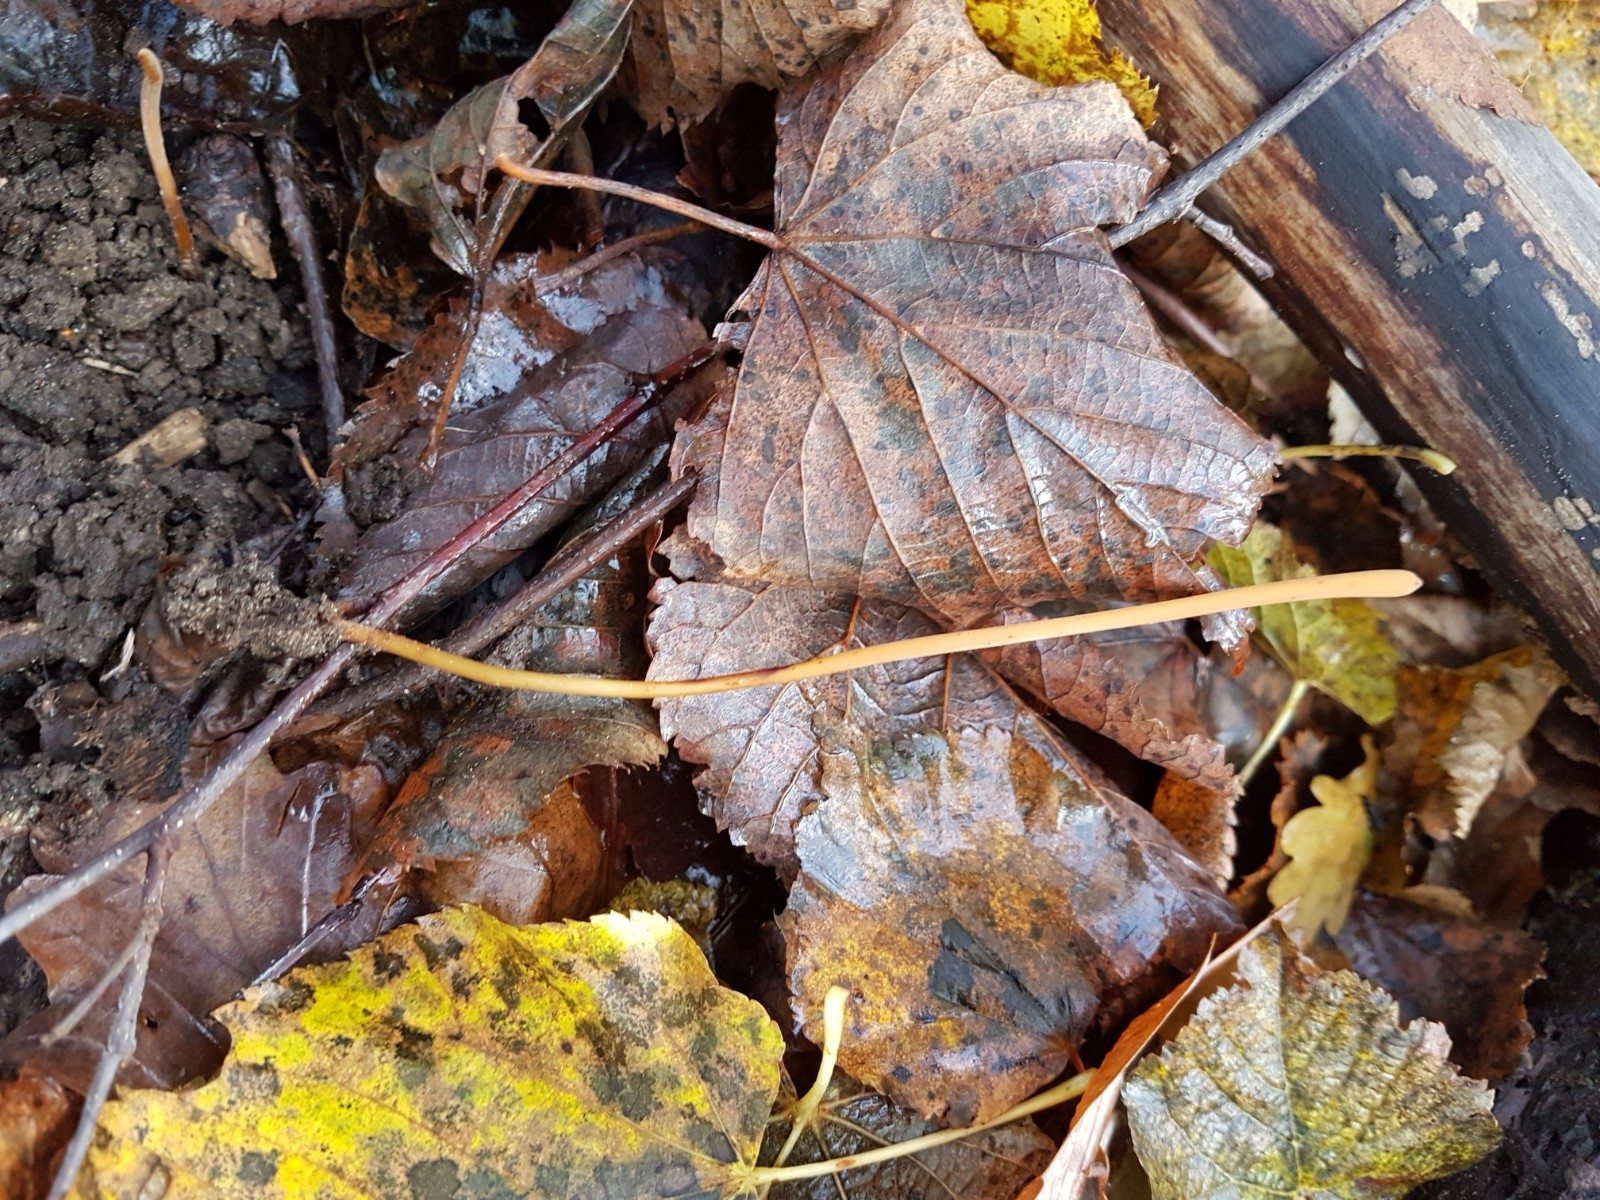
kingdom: Fungi
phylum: Basidiomycota
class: Agaricomycetes
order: Agaricales
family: Typhulaceae
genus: Typhula
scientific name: Typhula fistulosa
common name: pibet rørkølle
